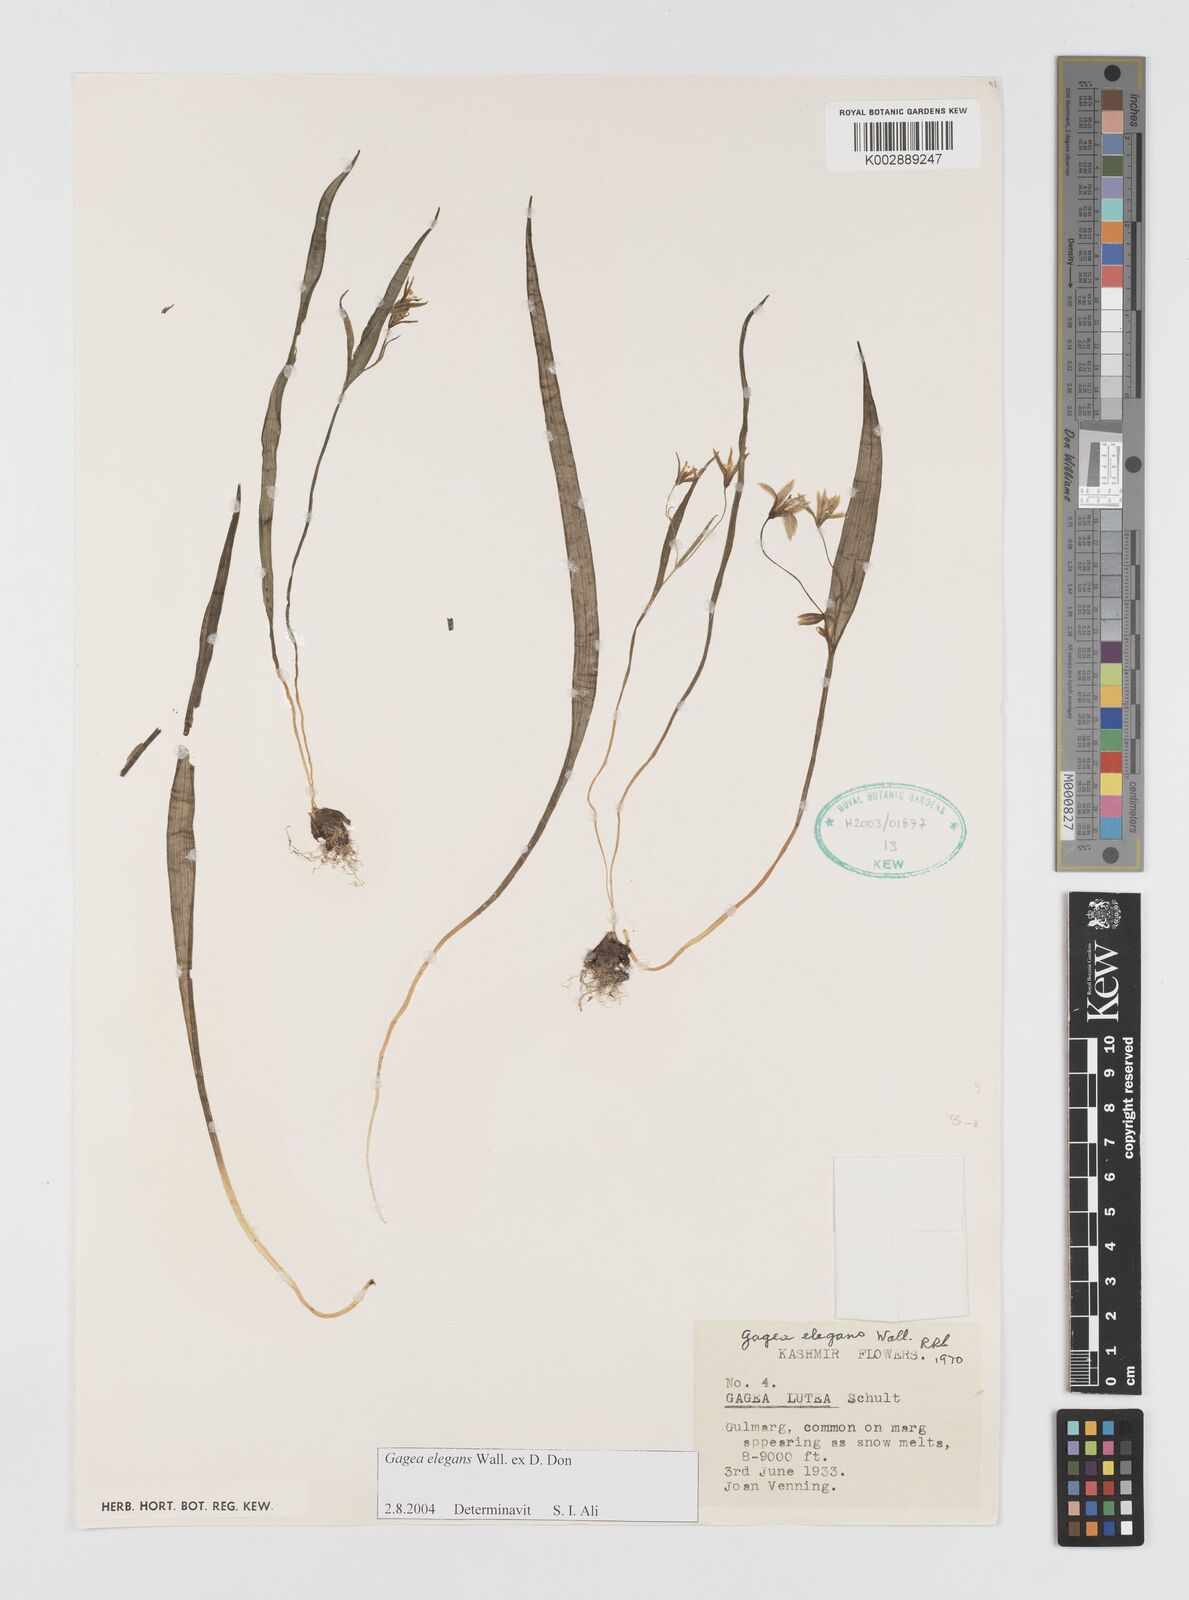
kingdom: Plantae
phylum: Tracheophyta
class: Liliopsida
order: Liliales
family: Liliaceae
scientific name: Liliaceae
